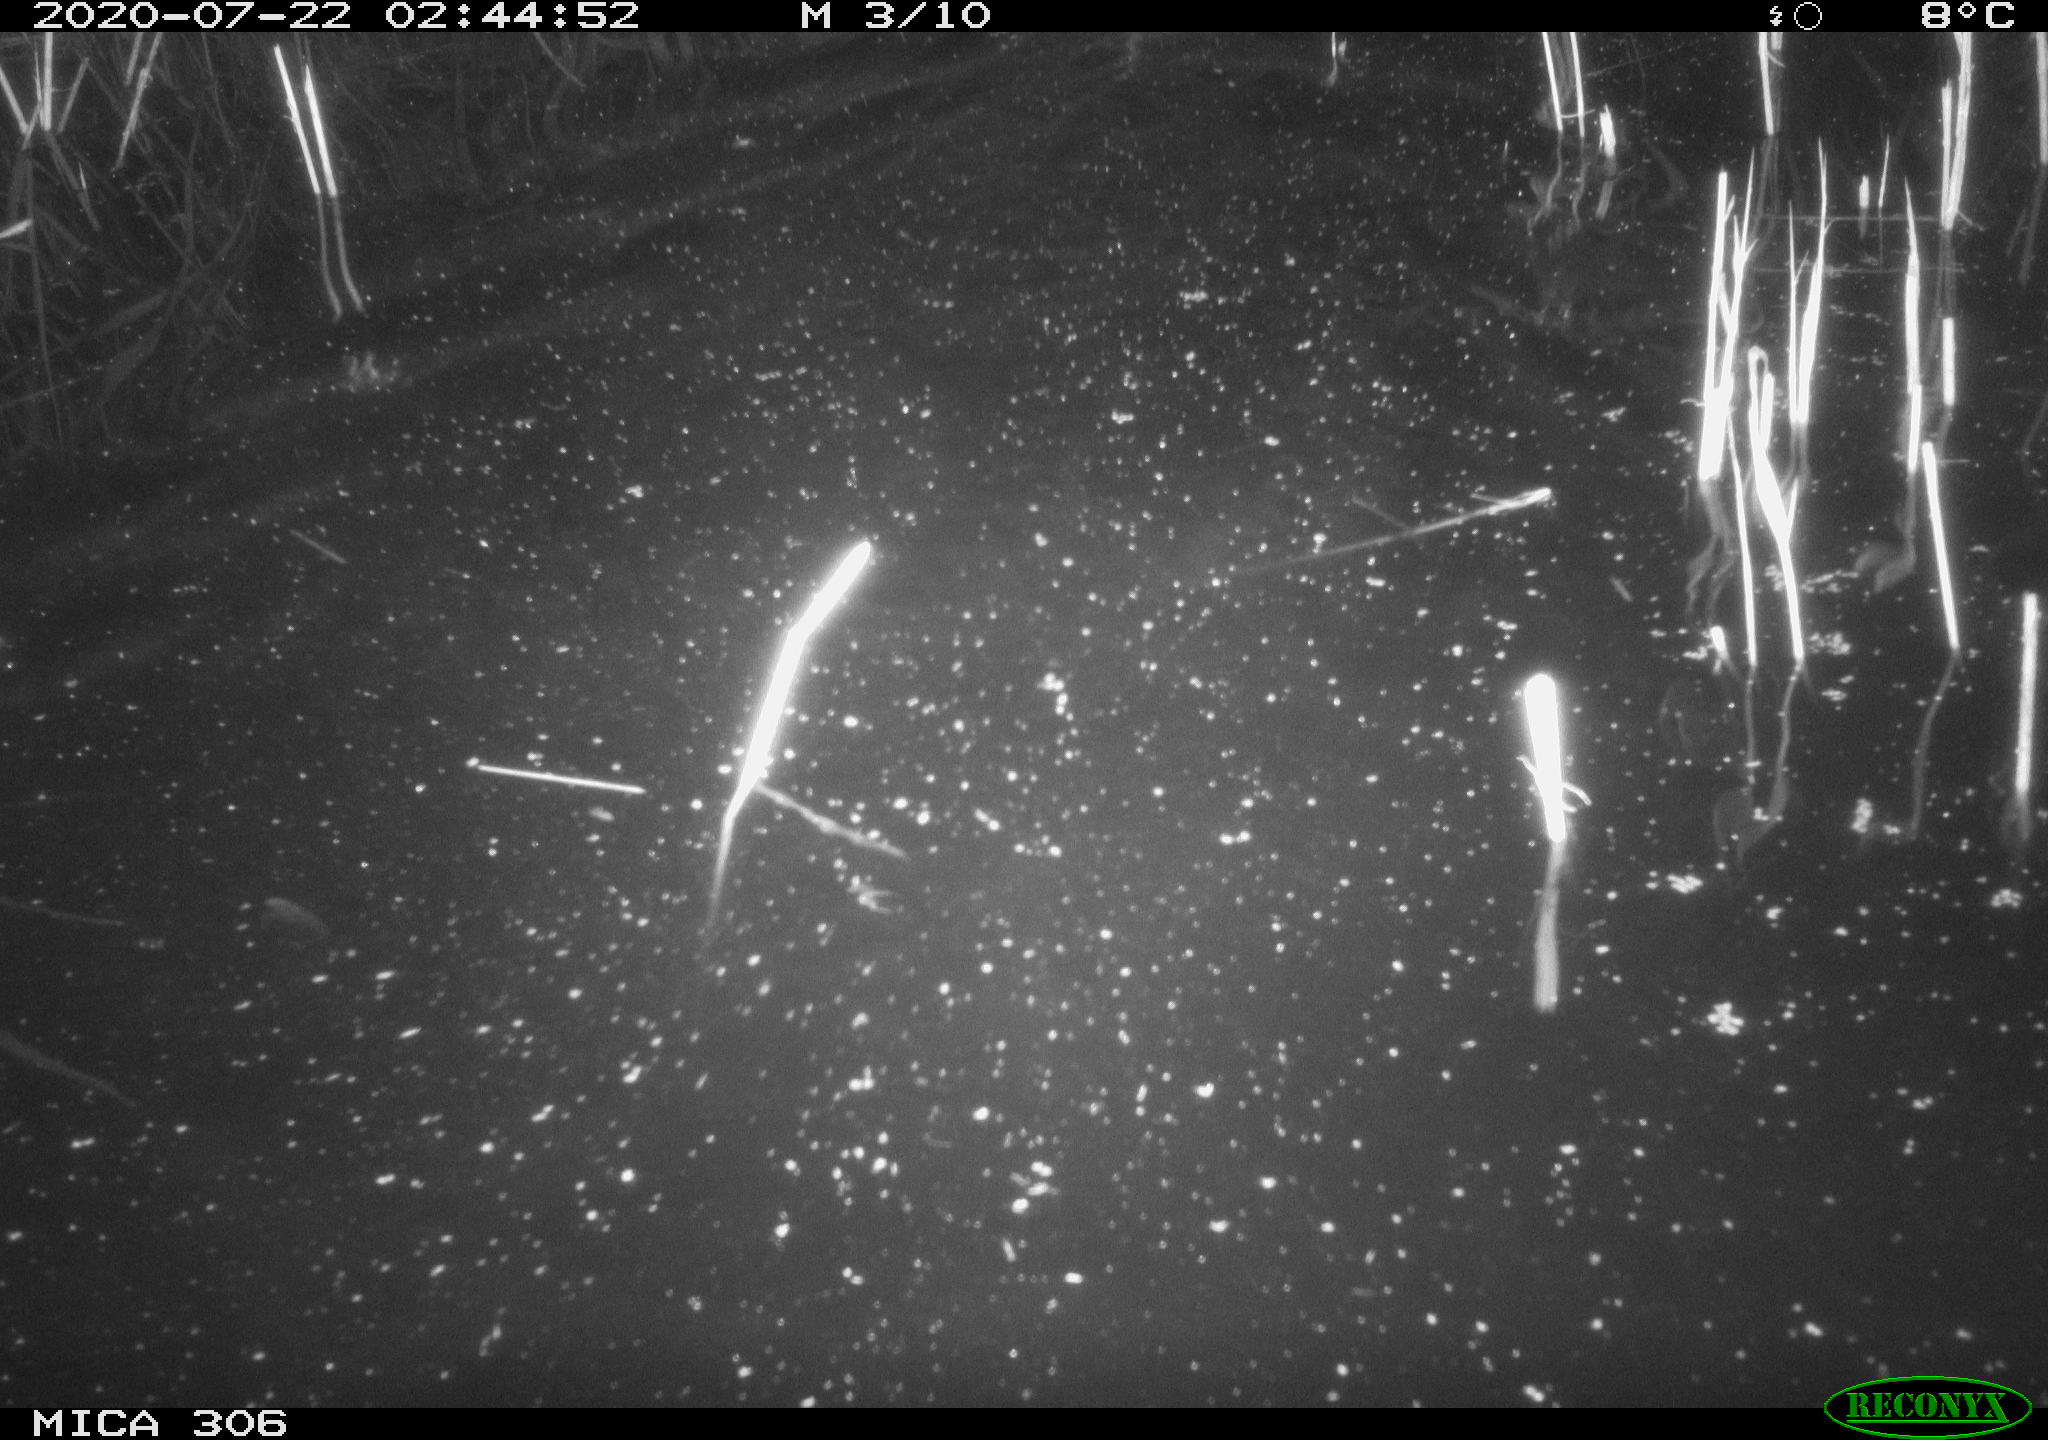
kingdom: Animalia
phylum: Chordata
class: Mammalia
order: Rodentia
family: Cricetidae
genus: Ondatra
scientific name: Ondatra zibethicus
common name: Muskrat
